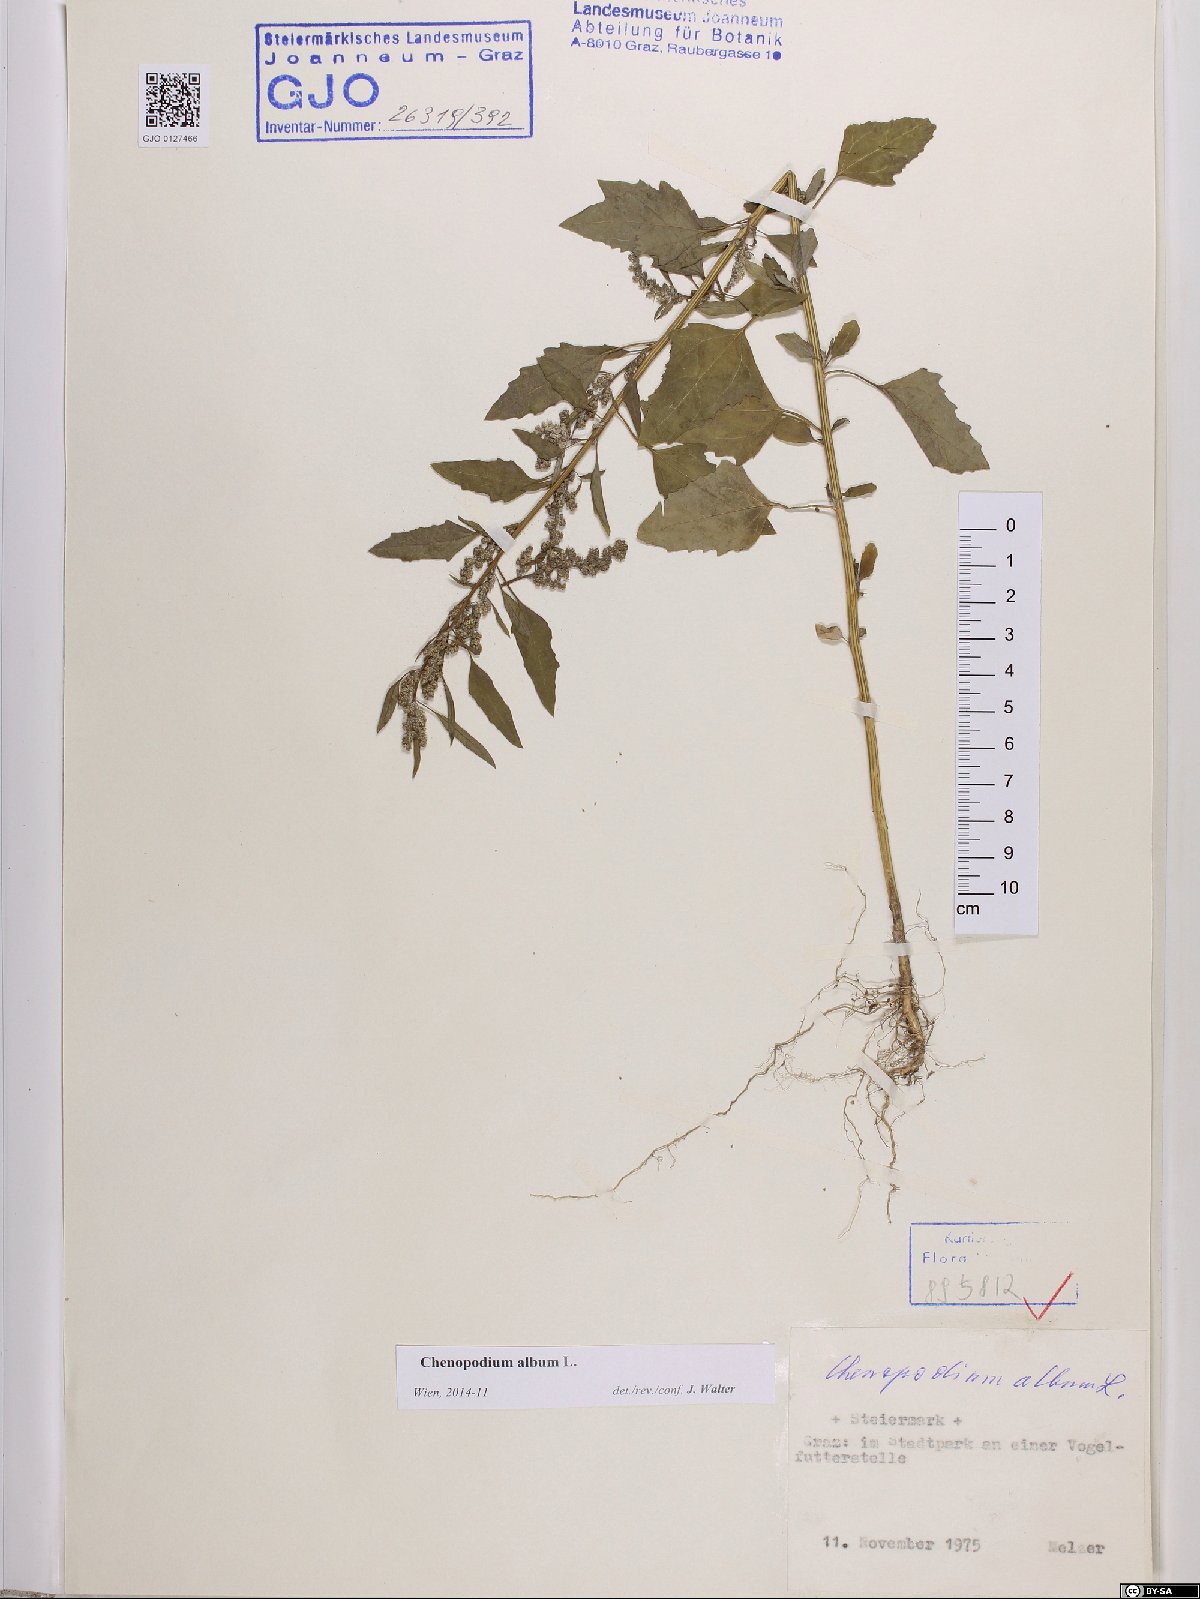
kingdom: Plantae
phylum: Tracheophyta
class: Magnoliopsida
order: Caryophyllales
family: Amaranthaceae
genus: Chenopodium
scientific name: Chenopodium album
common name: Fat-hen
